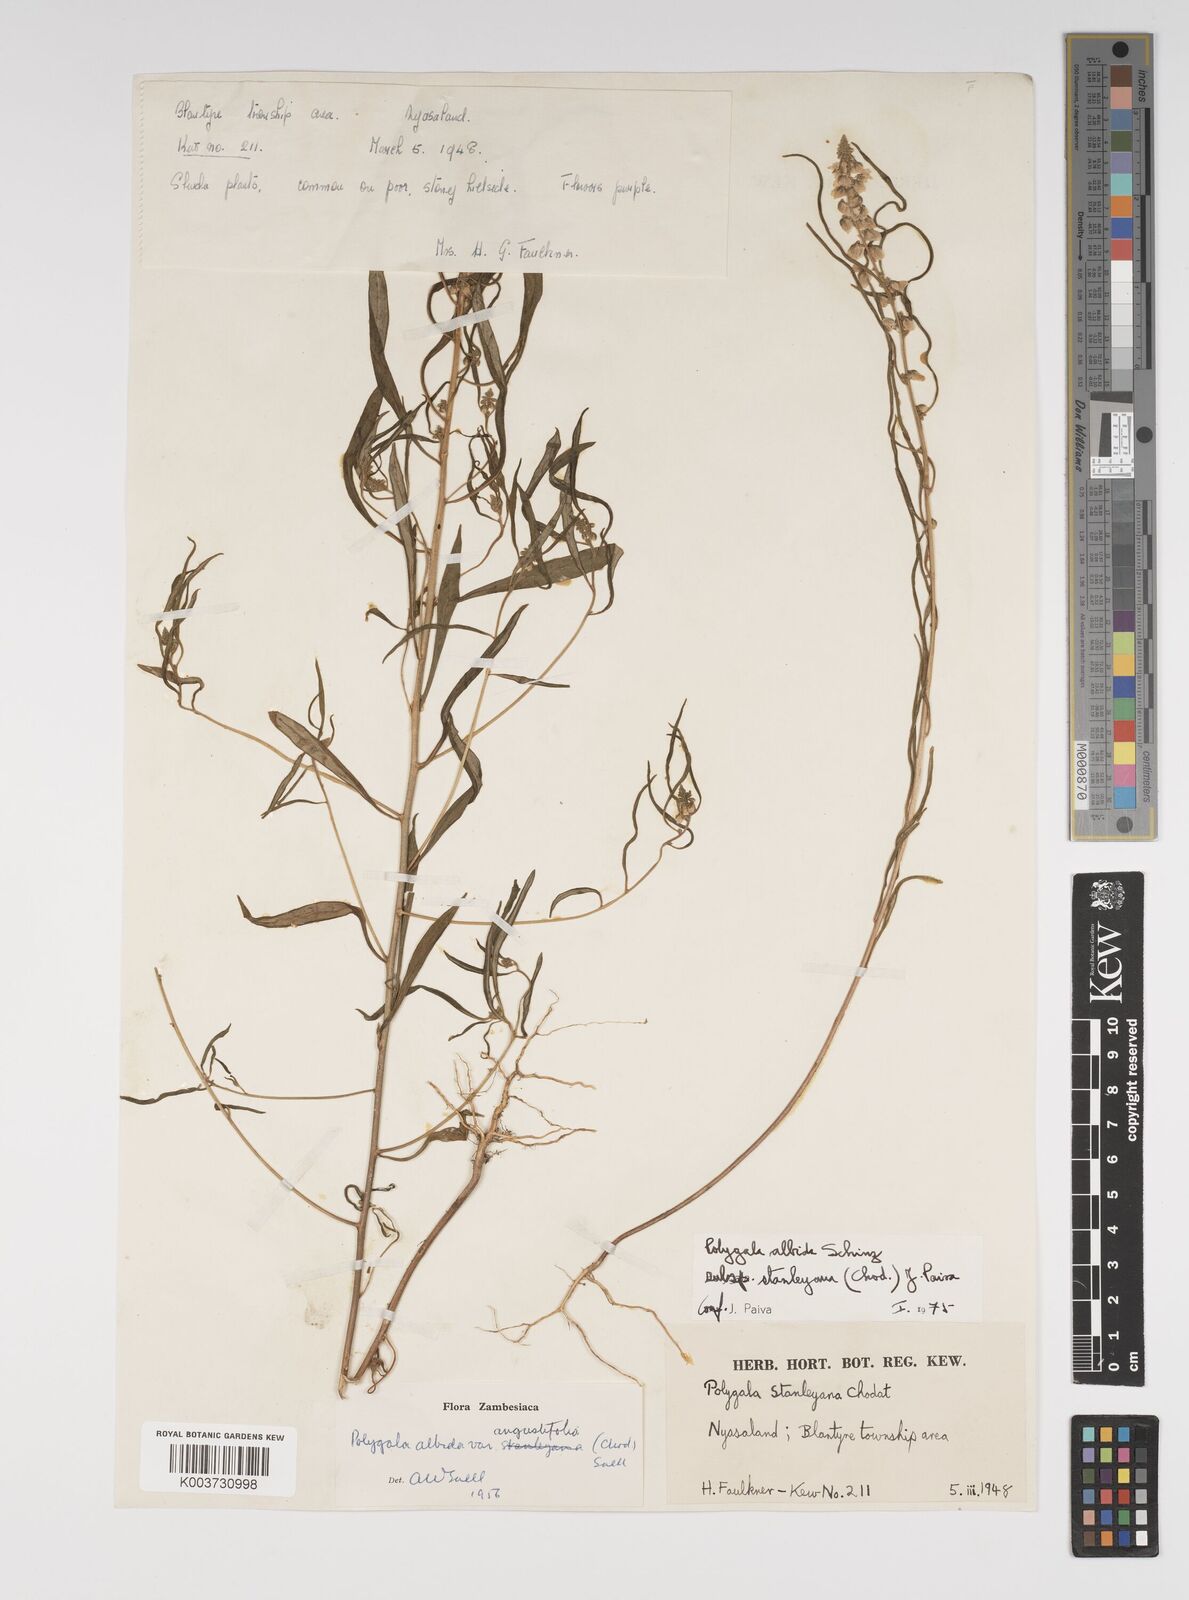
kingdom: Plantae
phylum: Tracheophyta
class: Magnoliopsida
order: Fabales
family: Polygalaceae
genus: Polygala
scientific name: Polygala albida
